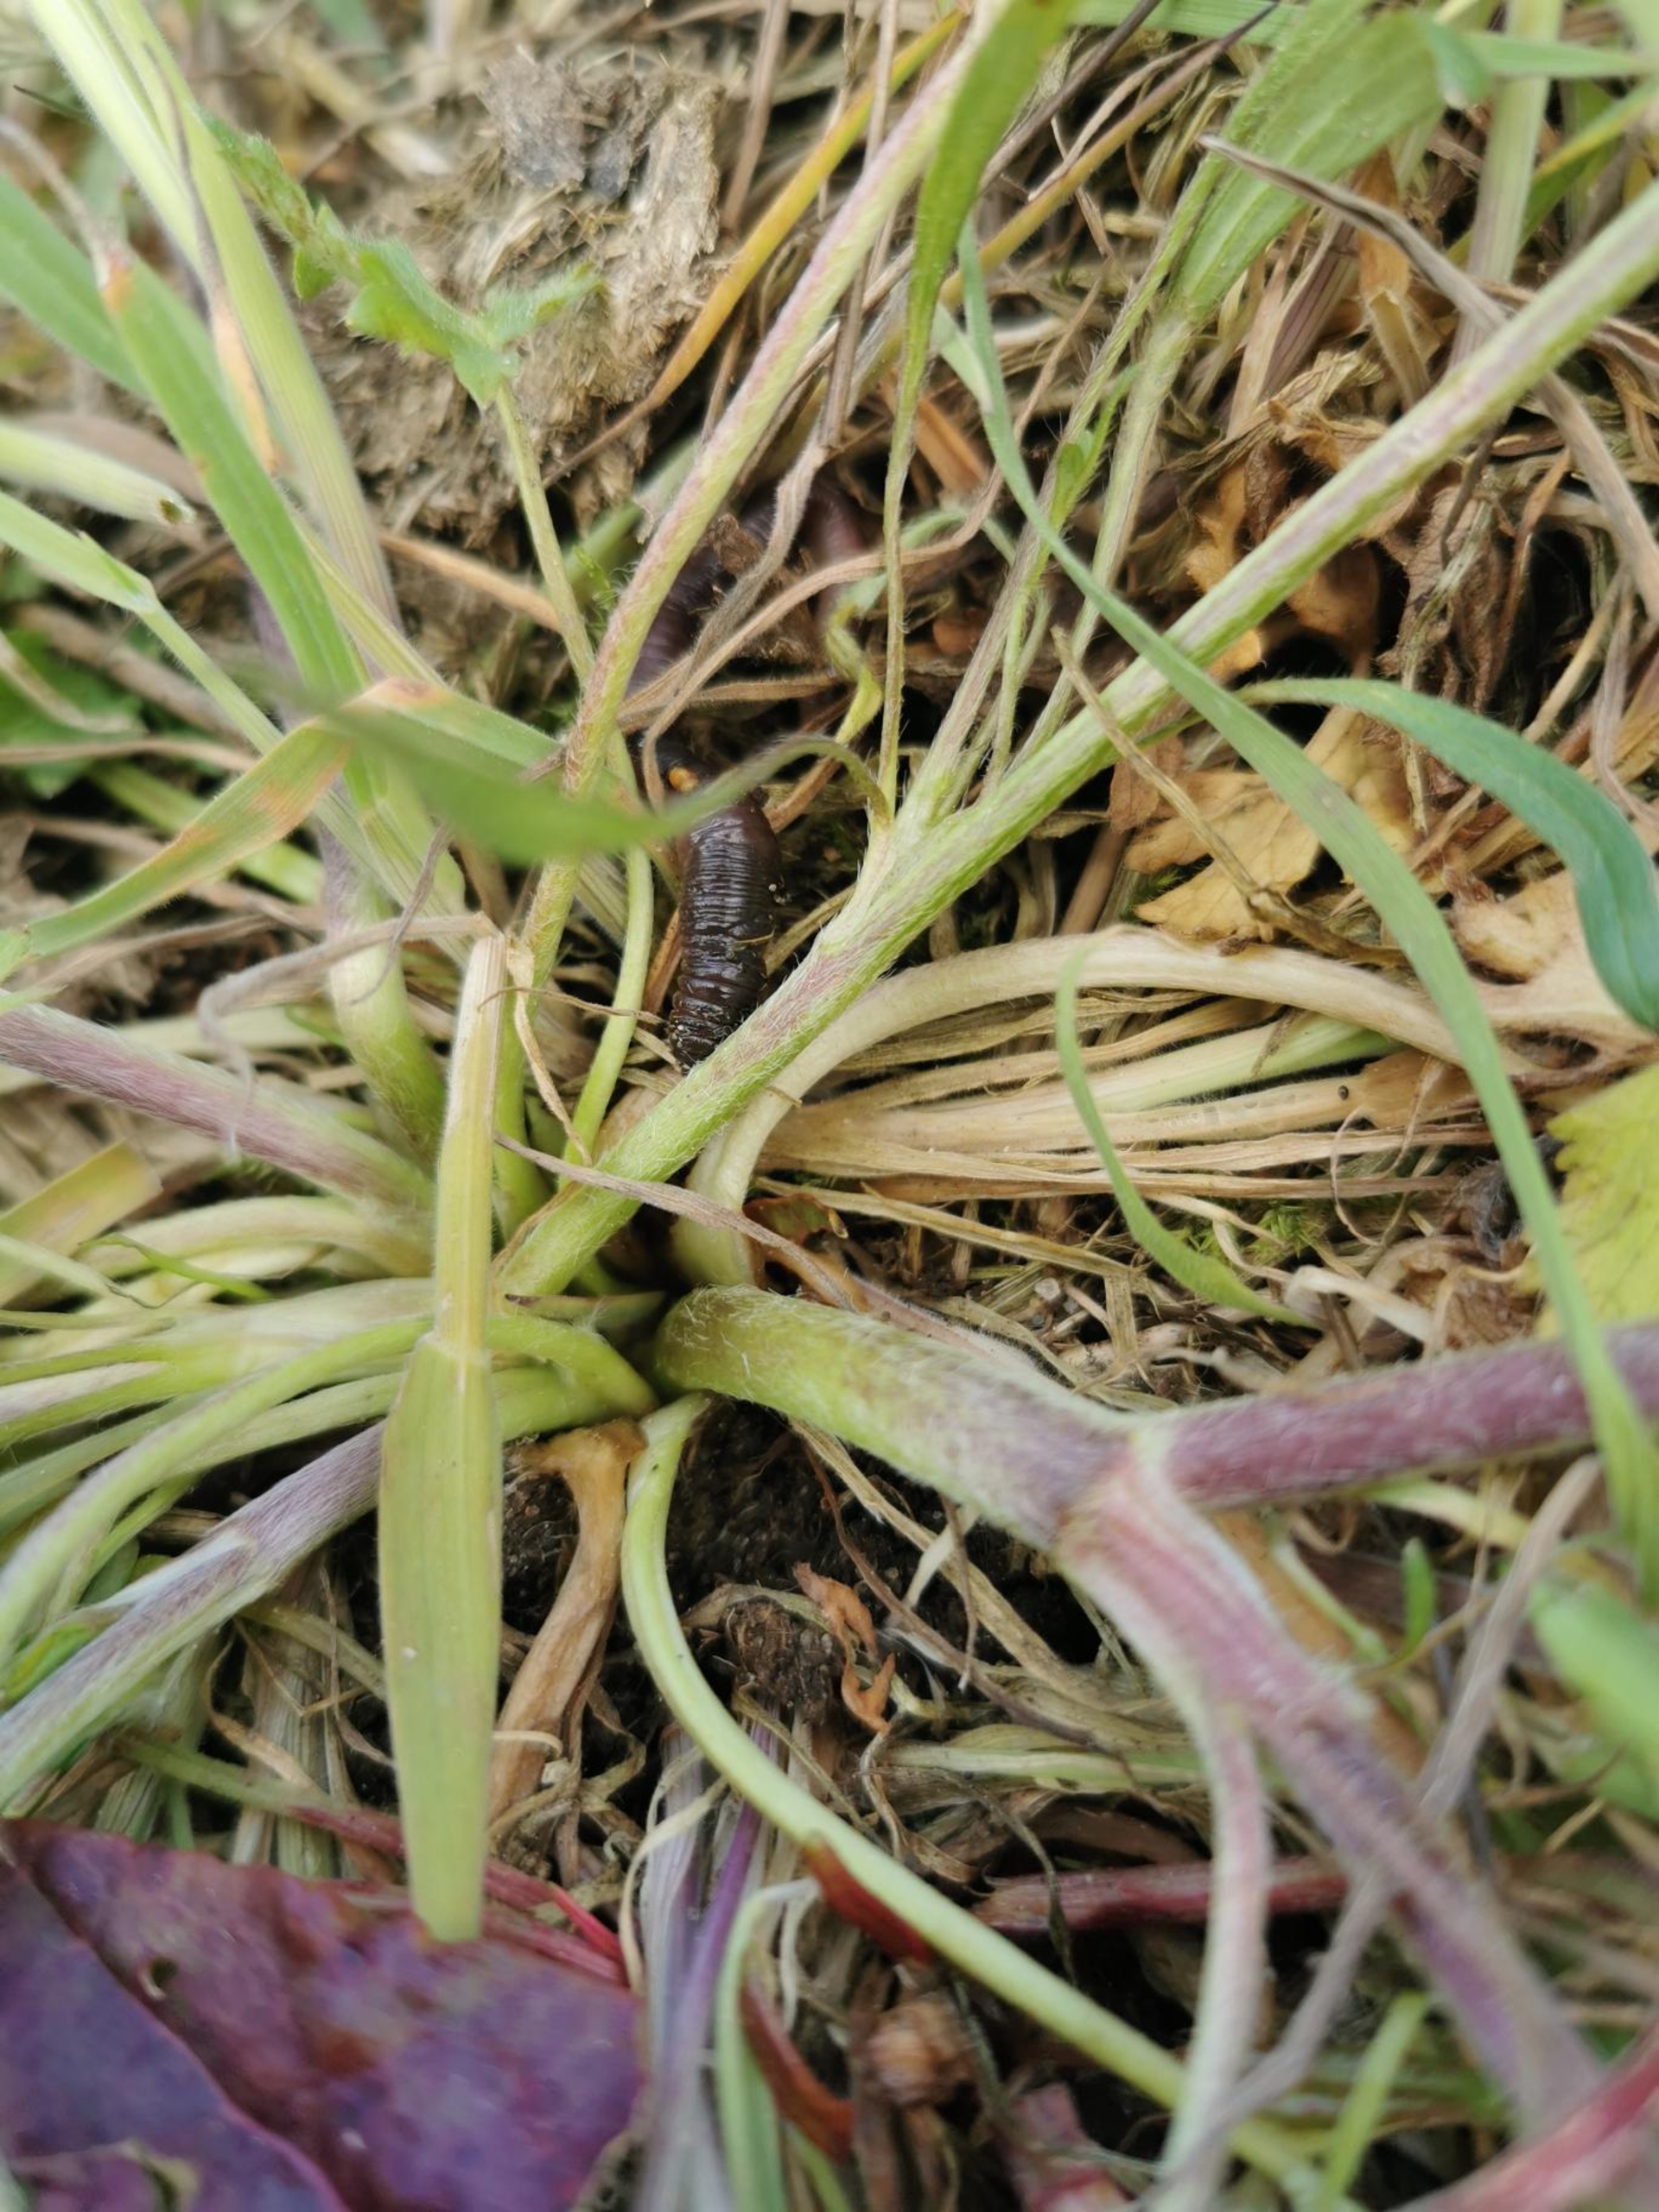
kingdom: Plantae
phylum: Tracheophyta
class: Magnoliopsida
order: Ranunculales
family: Ranunculaceae
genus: Ranunculus
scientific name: Ranunculus bulbosus
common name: Knold-ranunkel
